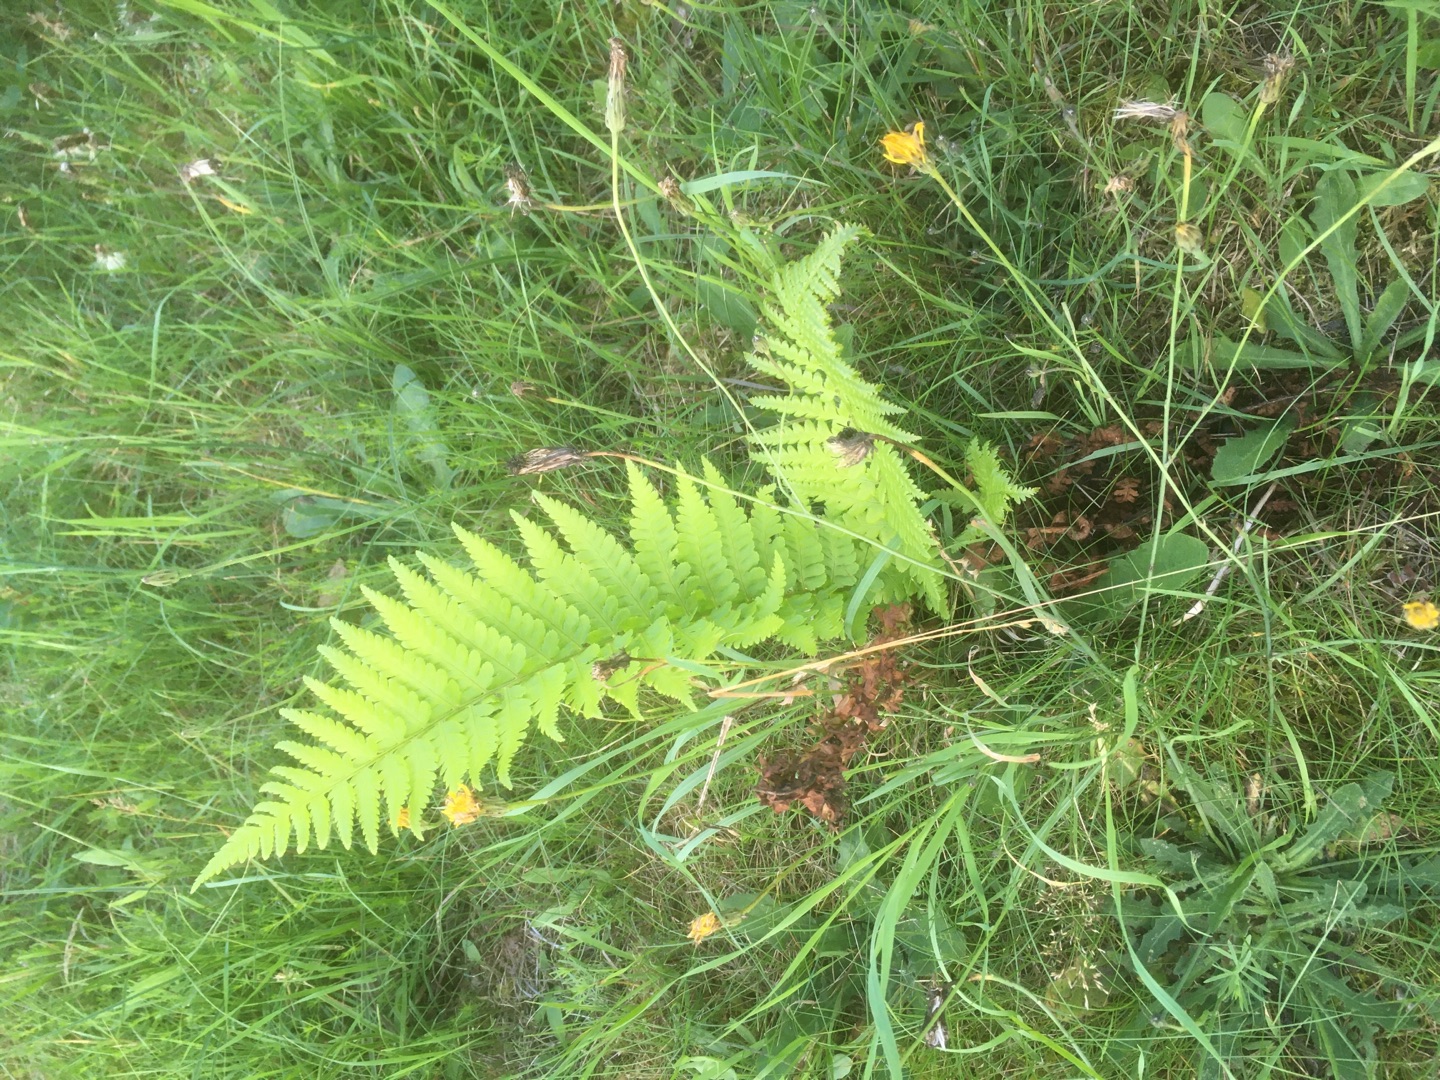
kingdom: Plantae
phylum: Tracheophyta
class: Polypodiopsida
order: Polypodiales
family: Dryopteridaceae
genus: Dryopteris
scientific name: Dryopteris filix-mas
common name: Almindelig mangeløv
